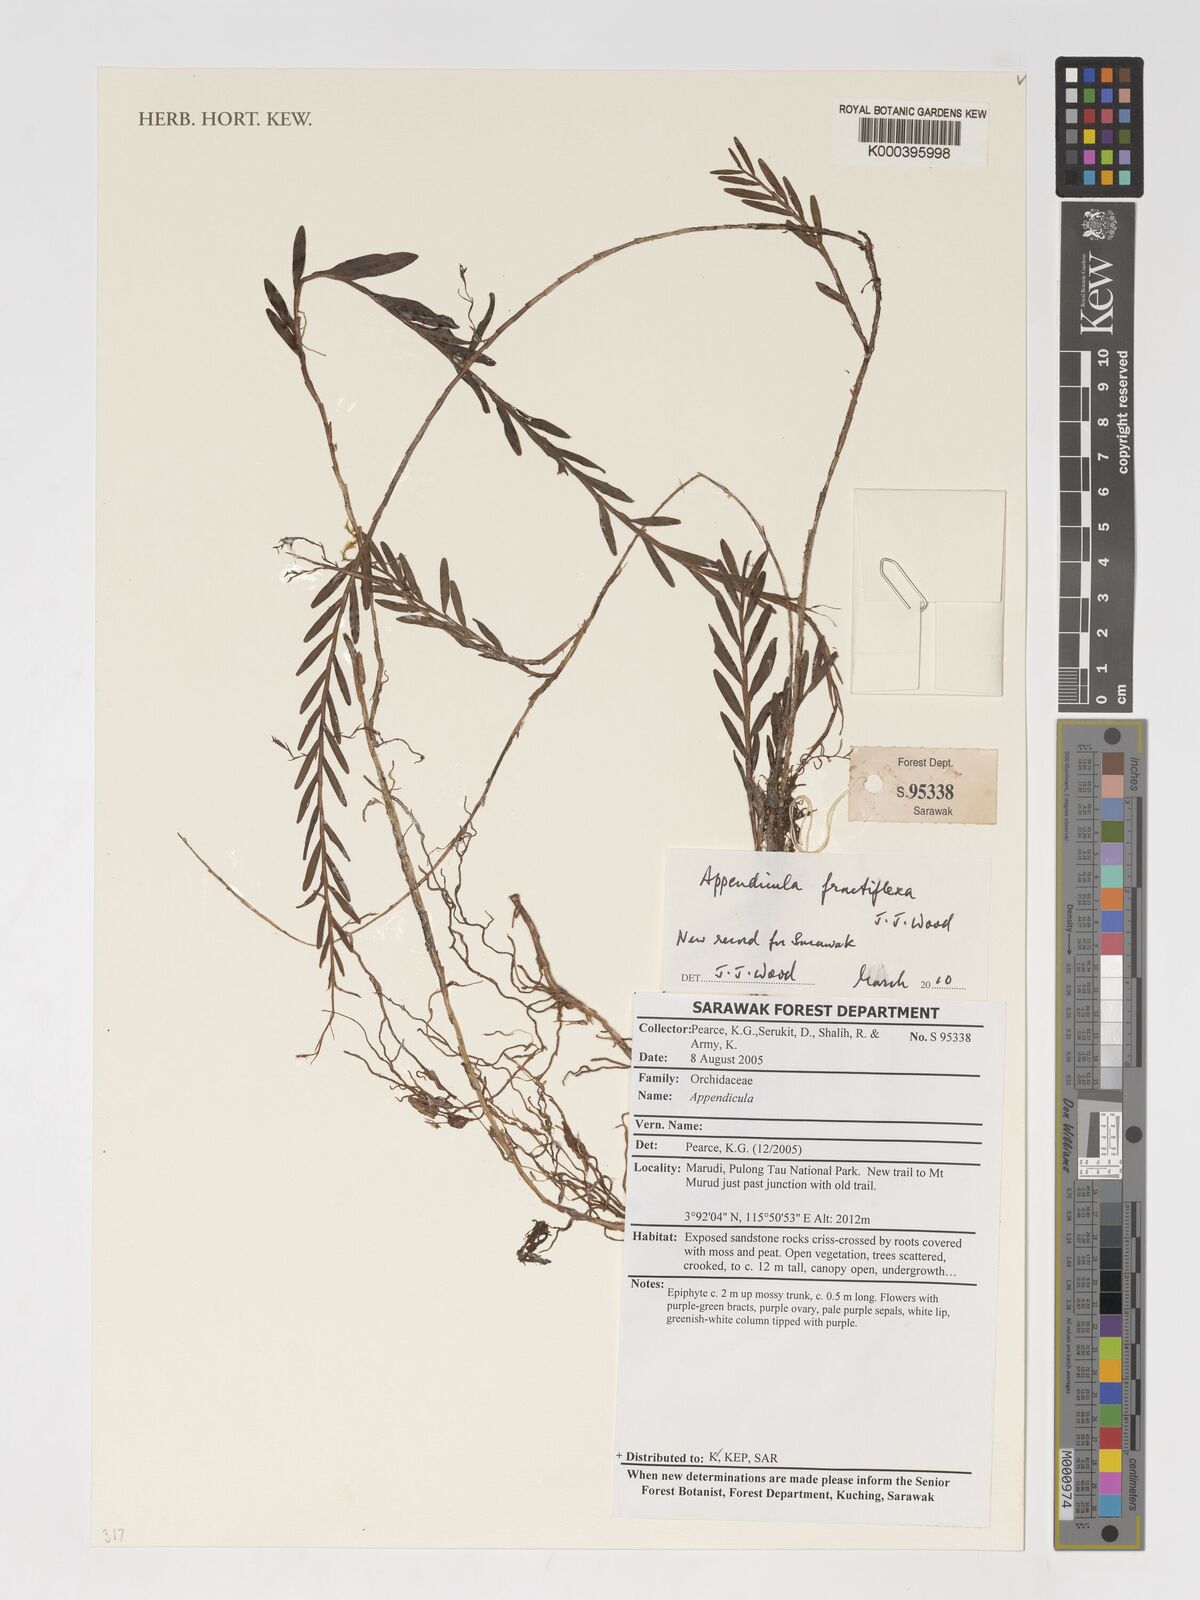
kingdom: Plantae
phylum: Tracheophyta
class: Liliopsida
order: Asparagales
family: Orchidaceae
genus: Appendicula
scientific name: Appendicula fractiflexa
